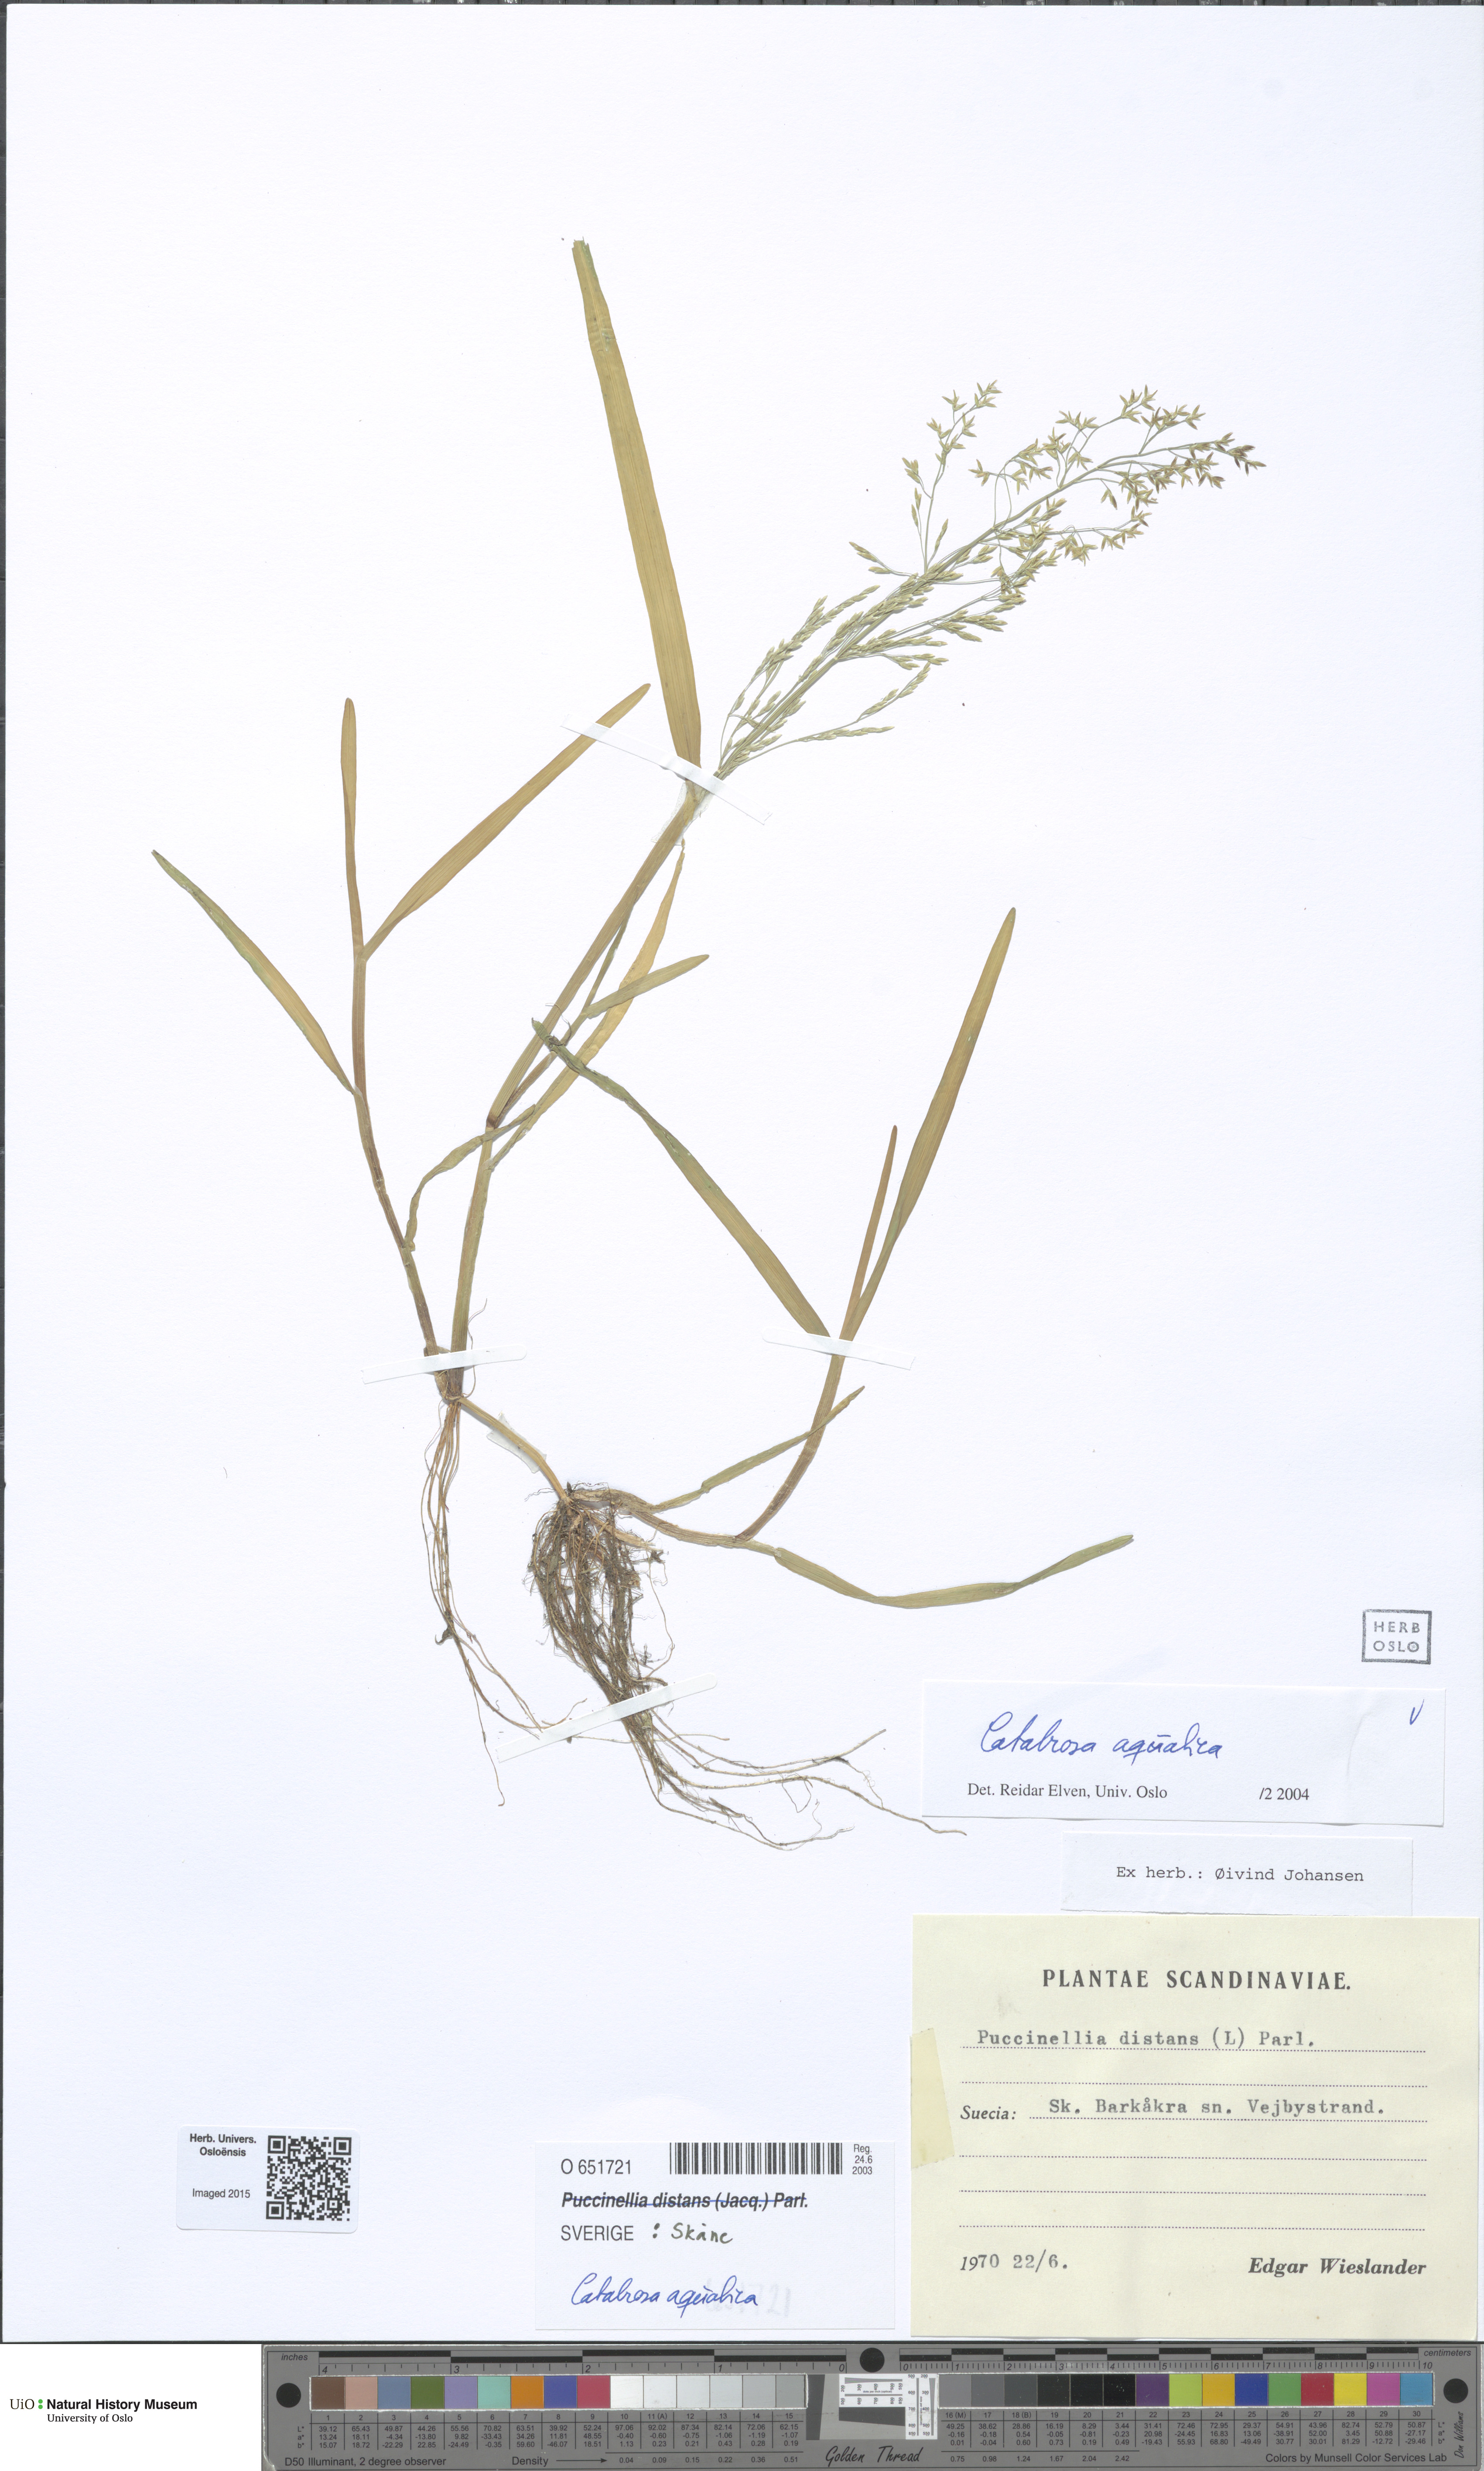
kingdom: Plantae
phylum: Tracheophyta
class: Liliopsida
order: Poales
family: Poaceae
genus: Catabrosa
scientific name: Catabrosa aquatica
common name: Whorl-grass
